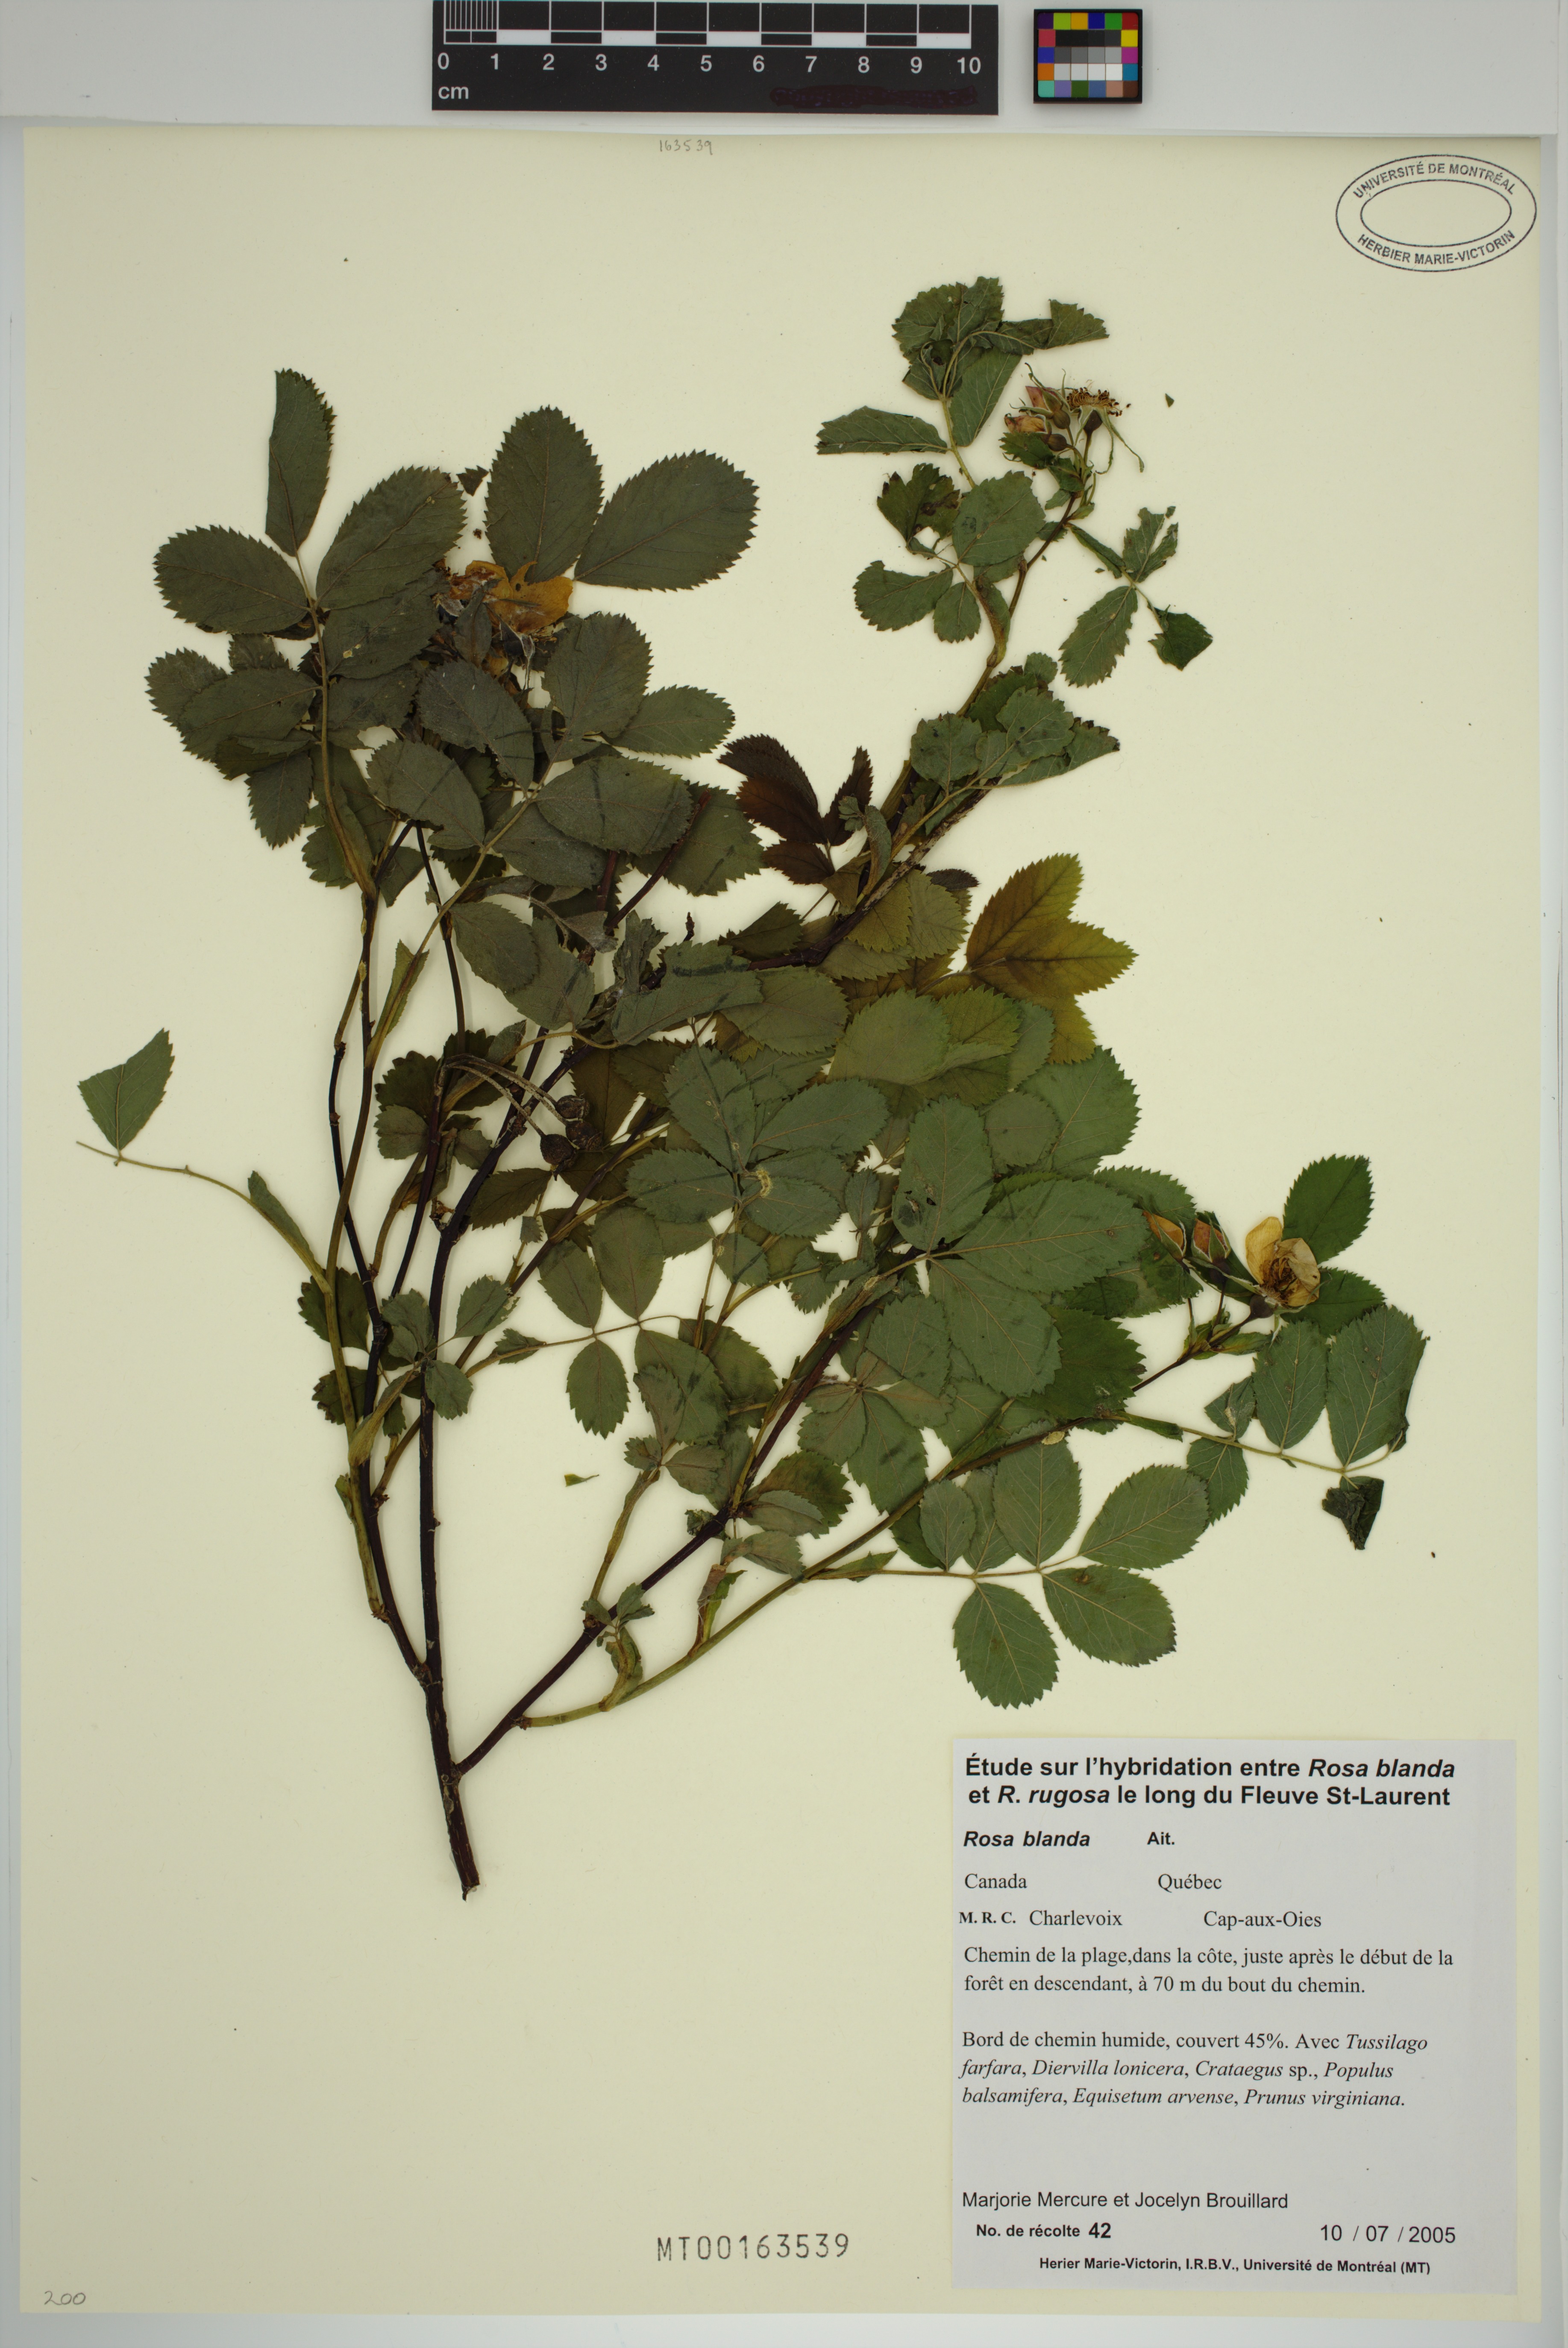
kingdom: Plantae
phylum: Tracheophyta
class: Magnoliopsida
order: Rosales
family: Rosaceae
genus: Rosa
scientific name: Rosa blanda
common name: Smooth rose
